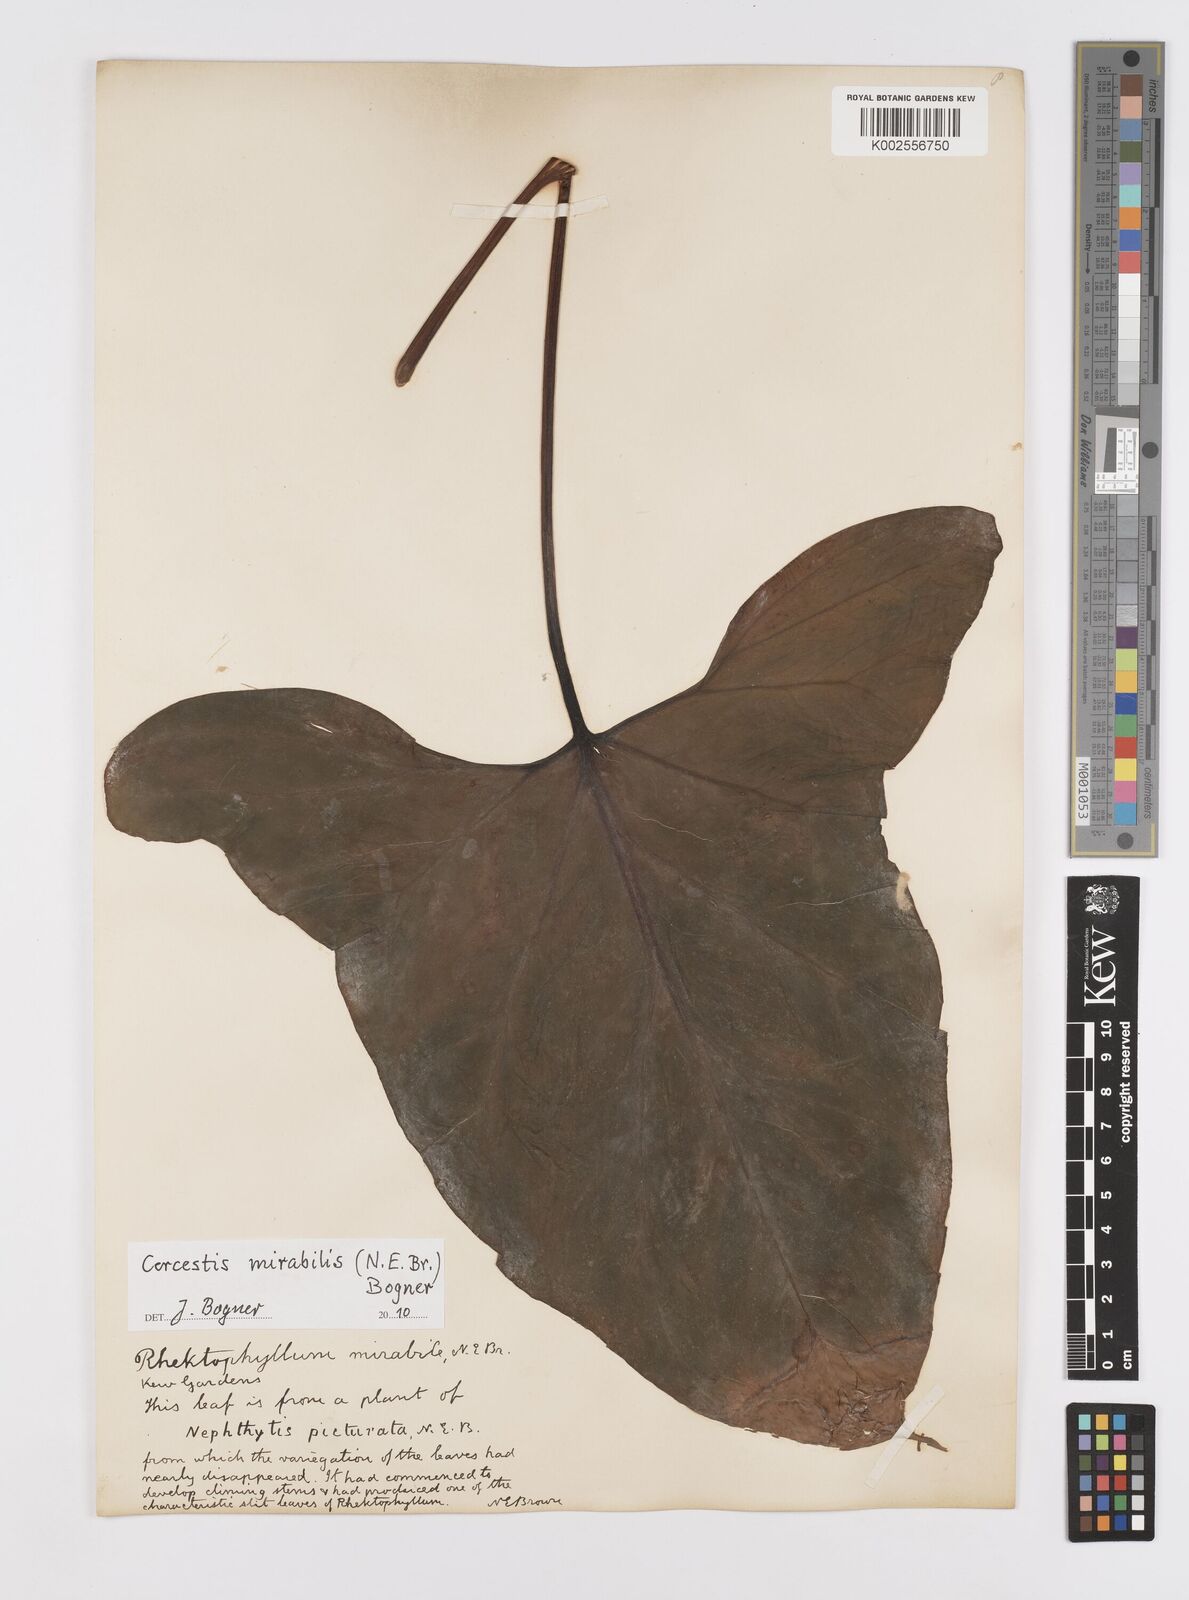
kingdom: Plantae
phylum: Tracheophyta
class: Liliopsida
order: Alismatales
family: Araceae
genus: Cercestis
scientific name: Cercestis mirabilis
